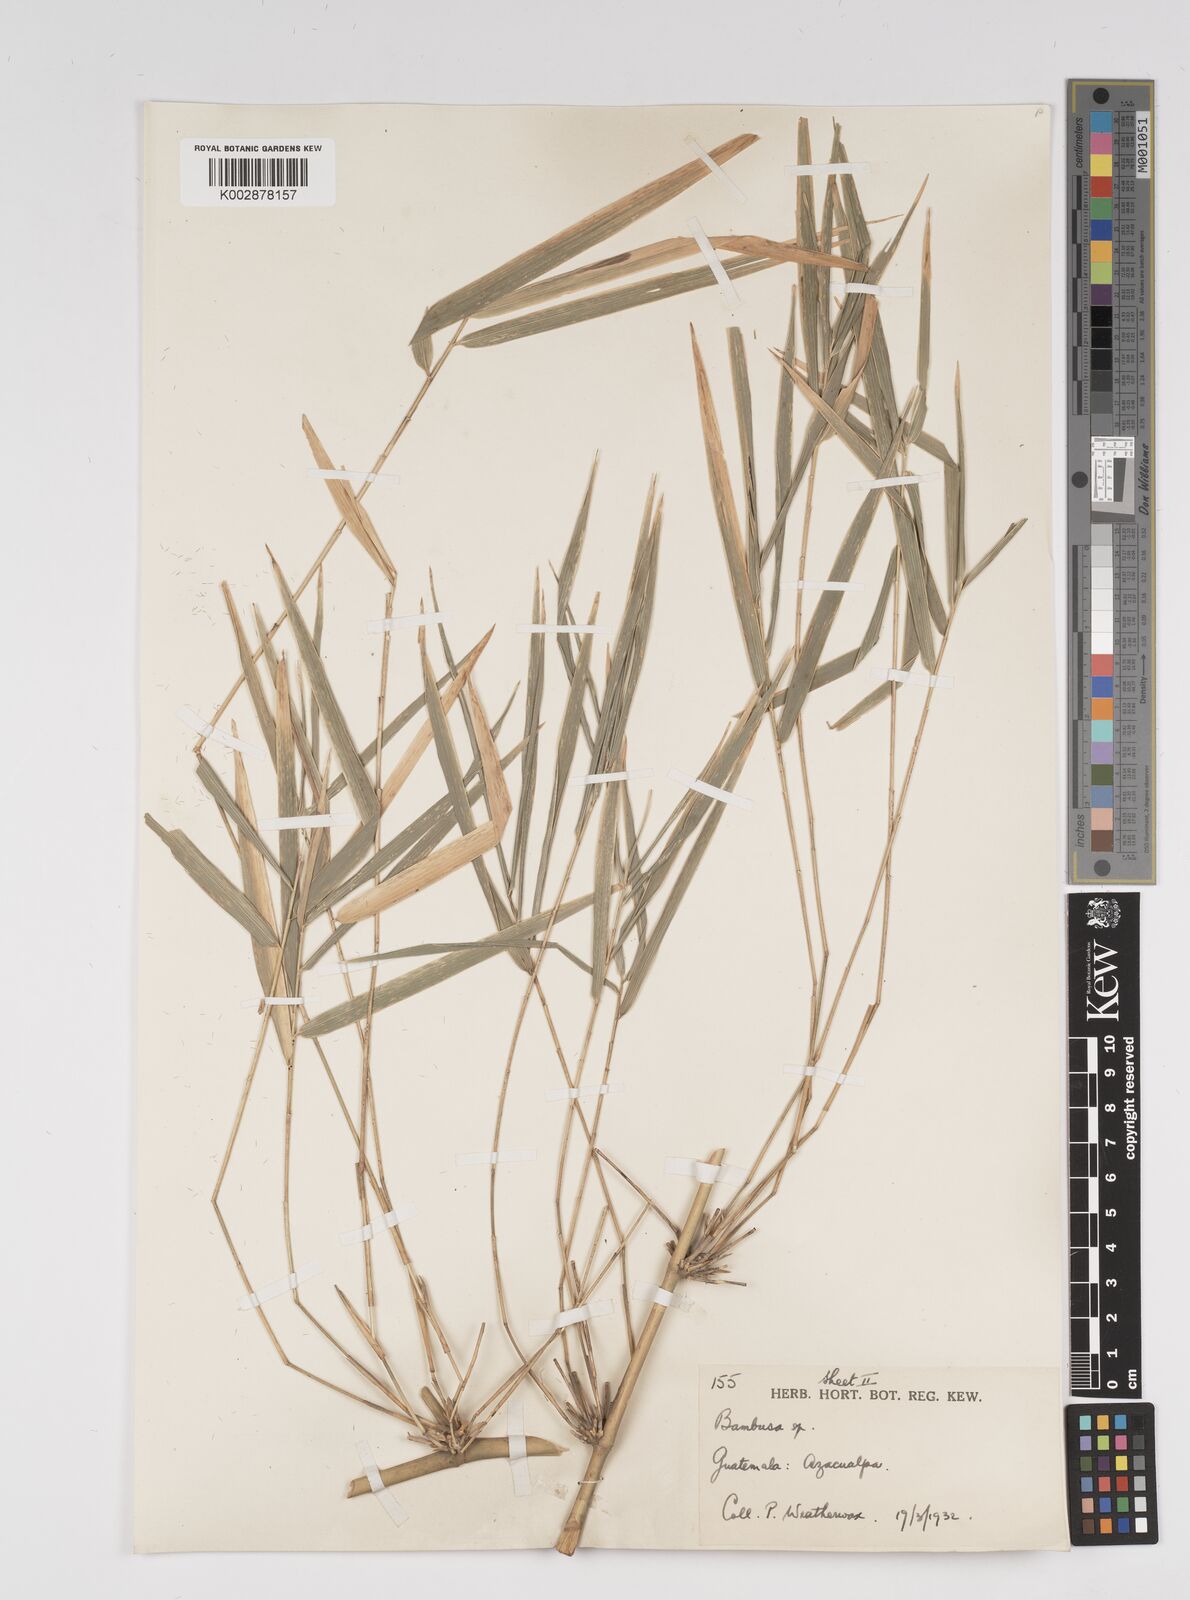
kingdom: Plantae
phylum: Tracheophyta
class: Liliopsida
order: Poales
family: Poaceae
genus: Bambusa
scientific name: Bambusa
